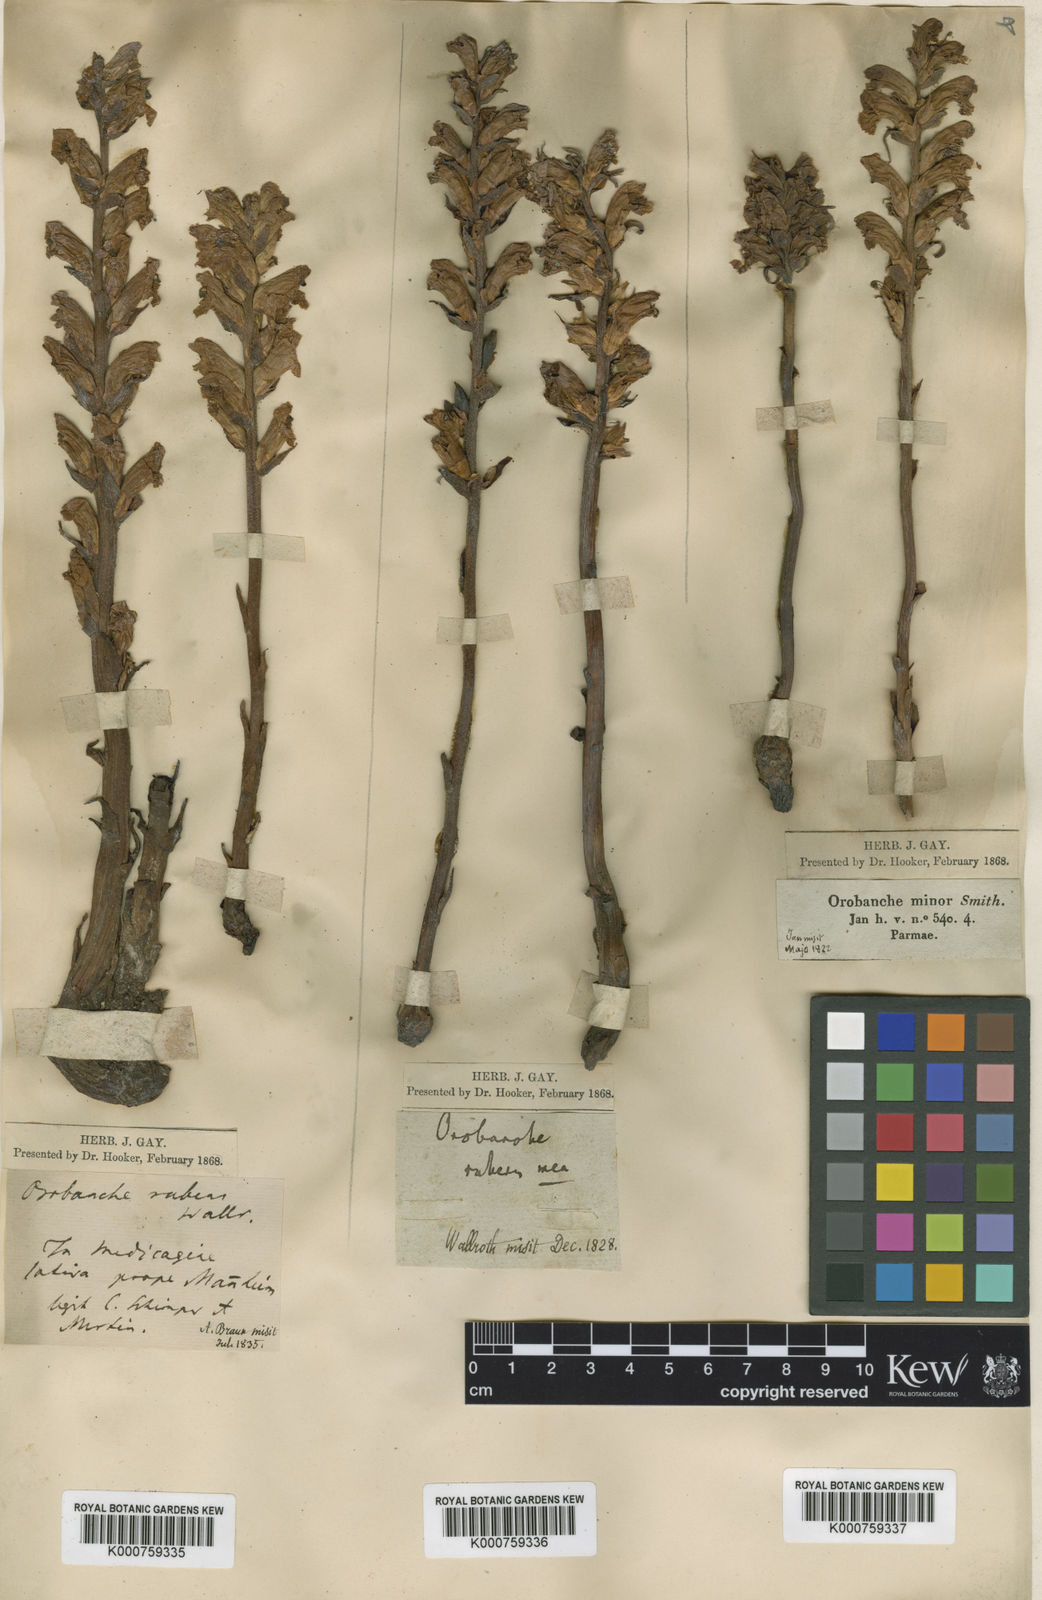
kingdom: Plantae
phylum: Tracheophyta
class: Magnoliopsida
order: Lamiales
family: Orobanchaceae
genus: Orobanche
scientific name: Orobanche lutea
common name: Yellow broomrape
